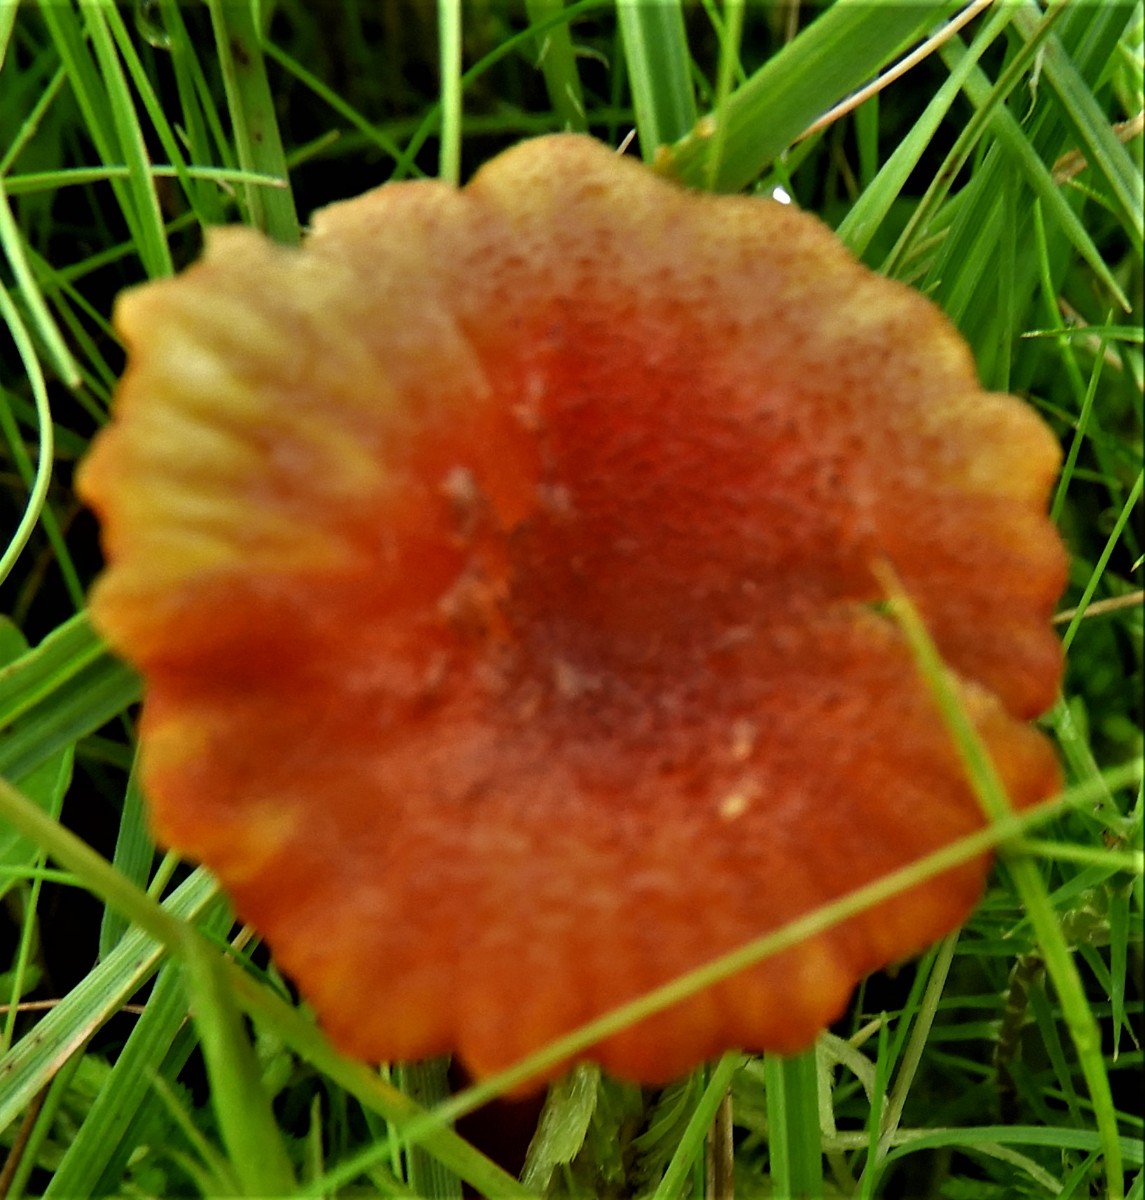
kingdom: Fungi
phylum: Basidiomycota
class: Agaricomycetes
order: Agaricales
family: Hygrophoraceae
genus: Hygrocybe
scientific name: Hygrocybe coccineocrenata
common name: tørvemos-vokshat
